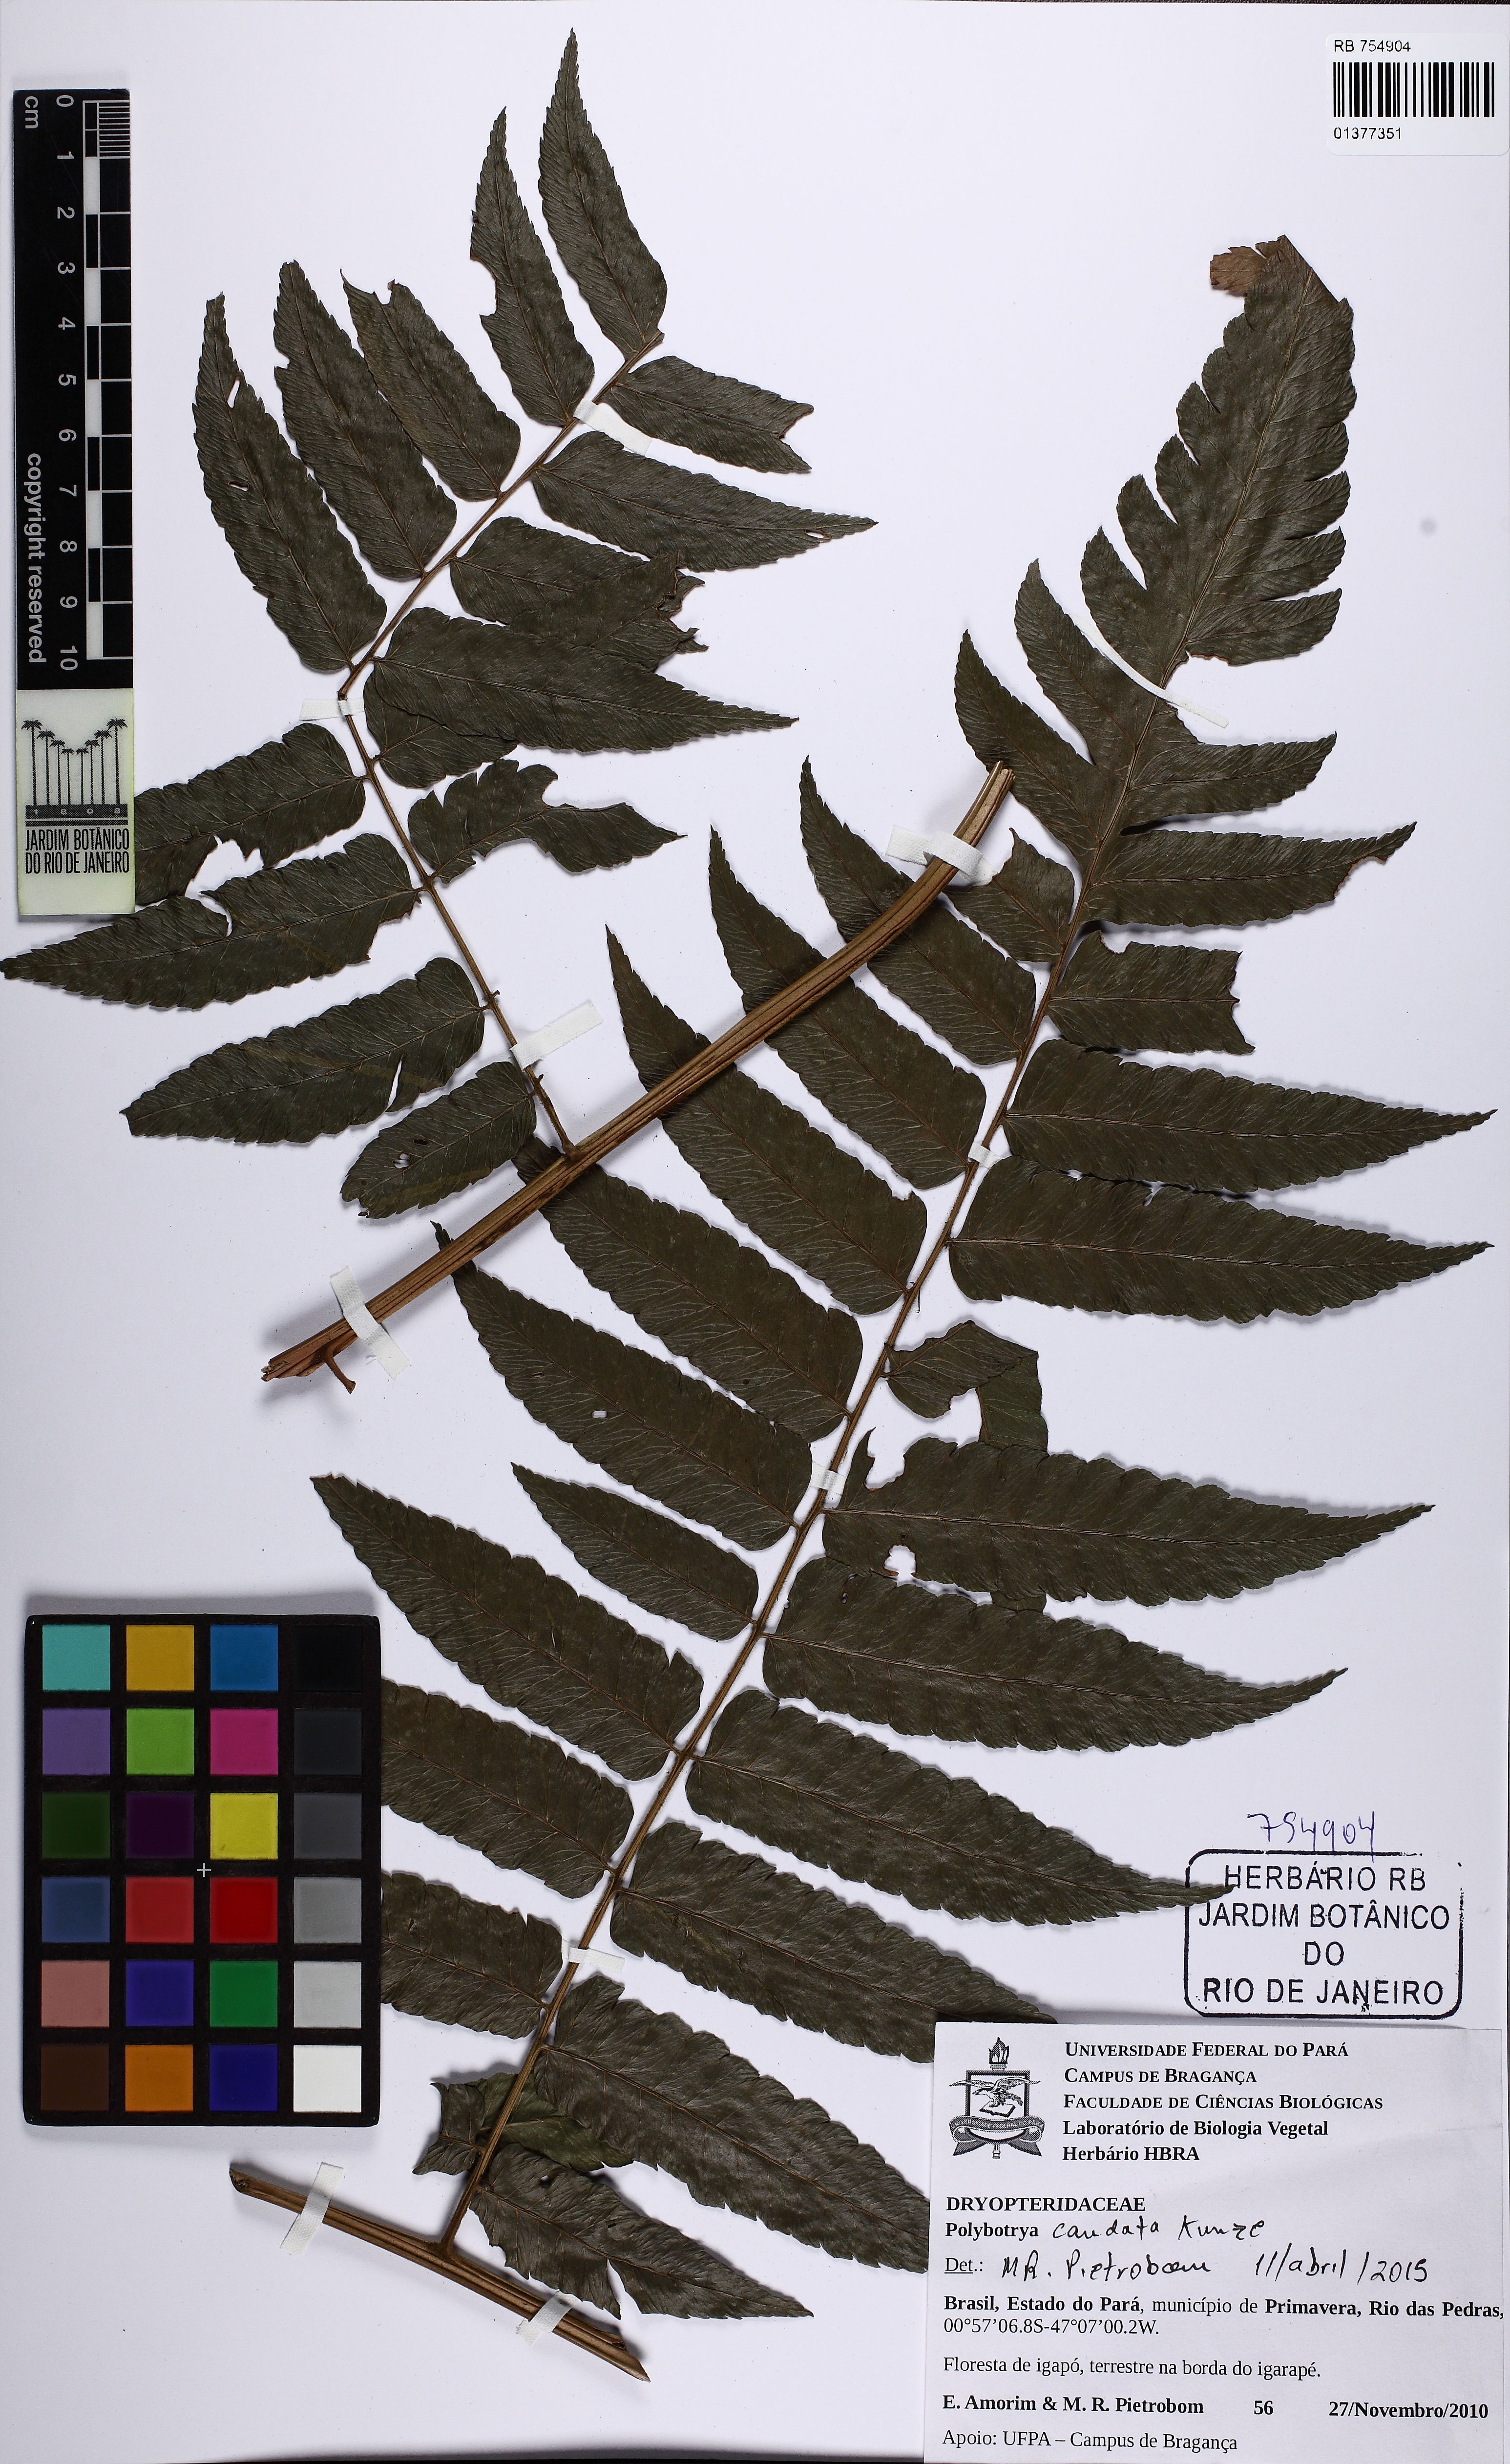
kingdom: Plantae
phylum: Tracheophyta
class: Polypodiopsida
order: Polypodiales
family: Dryopteridaceae
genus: Polybotrya
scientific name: Polybotrya caudata
